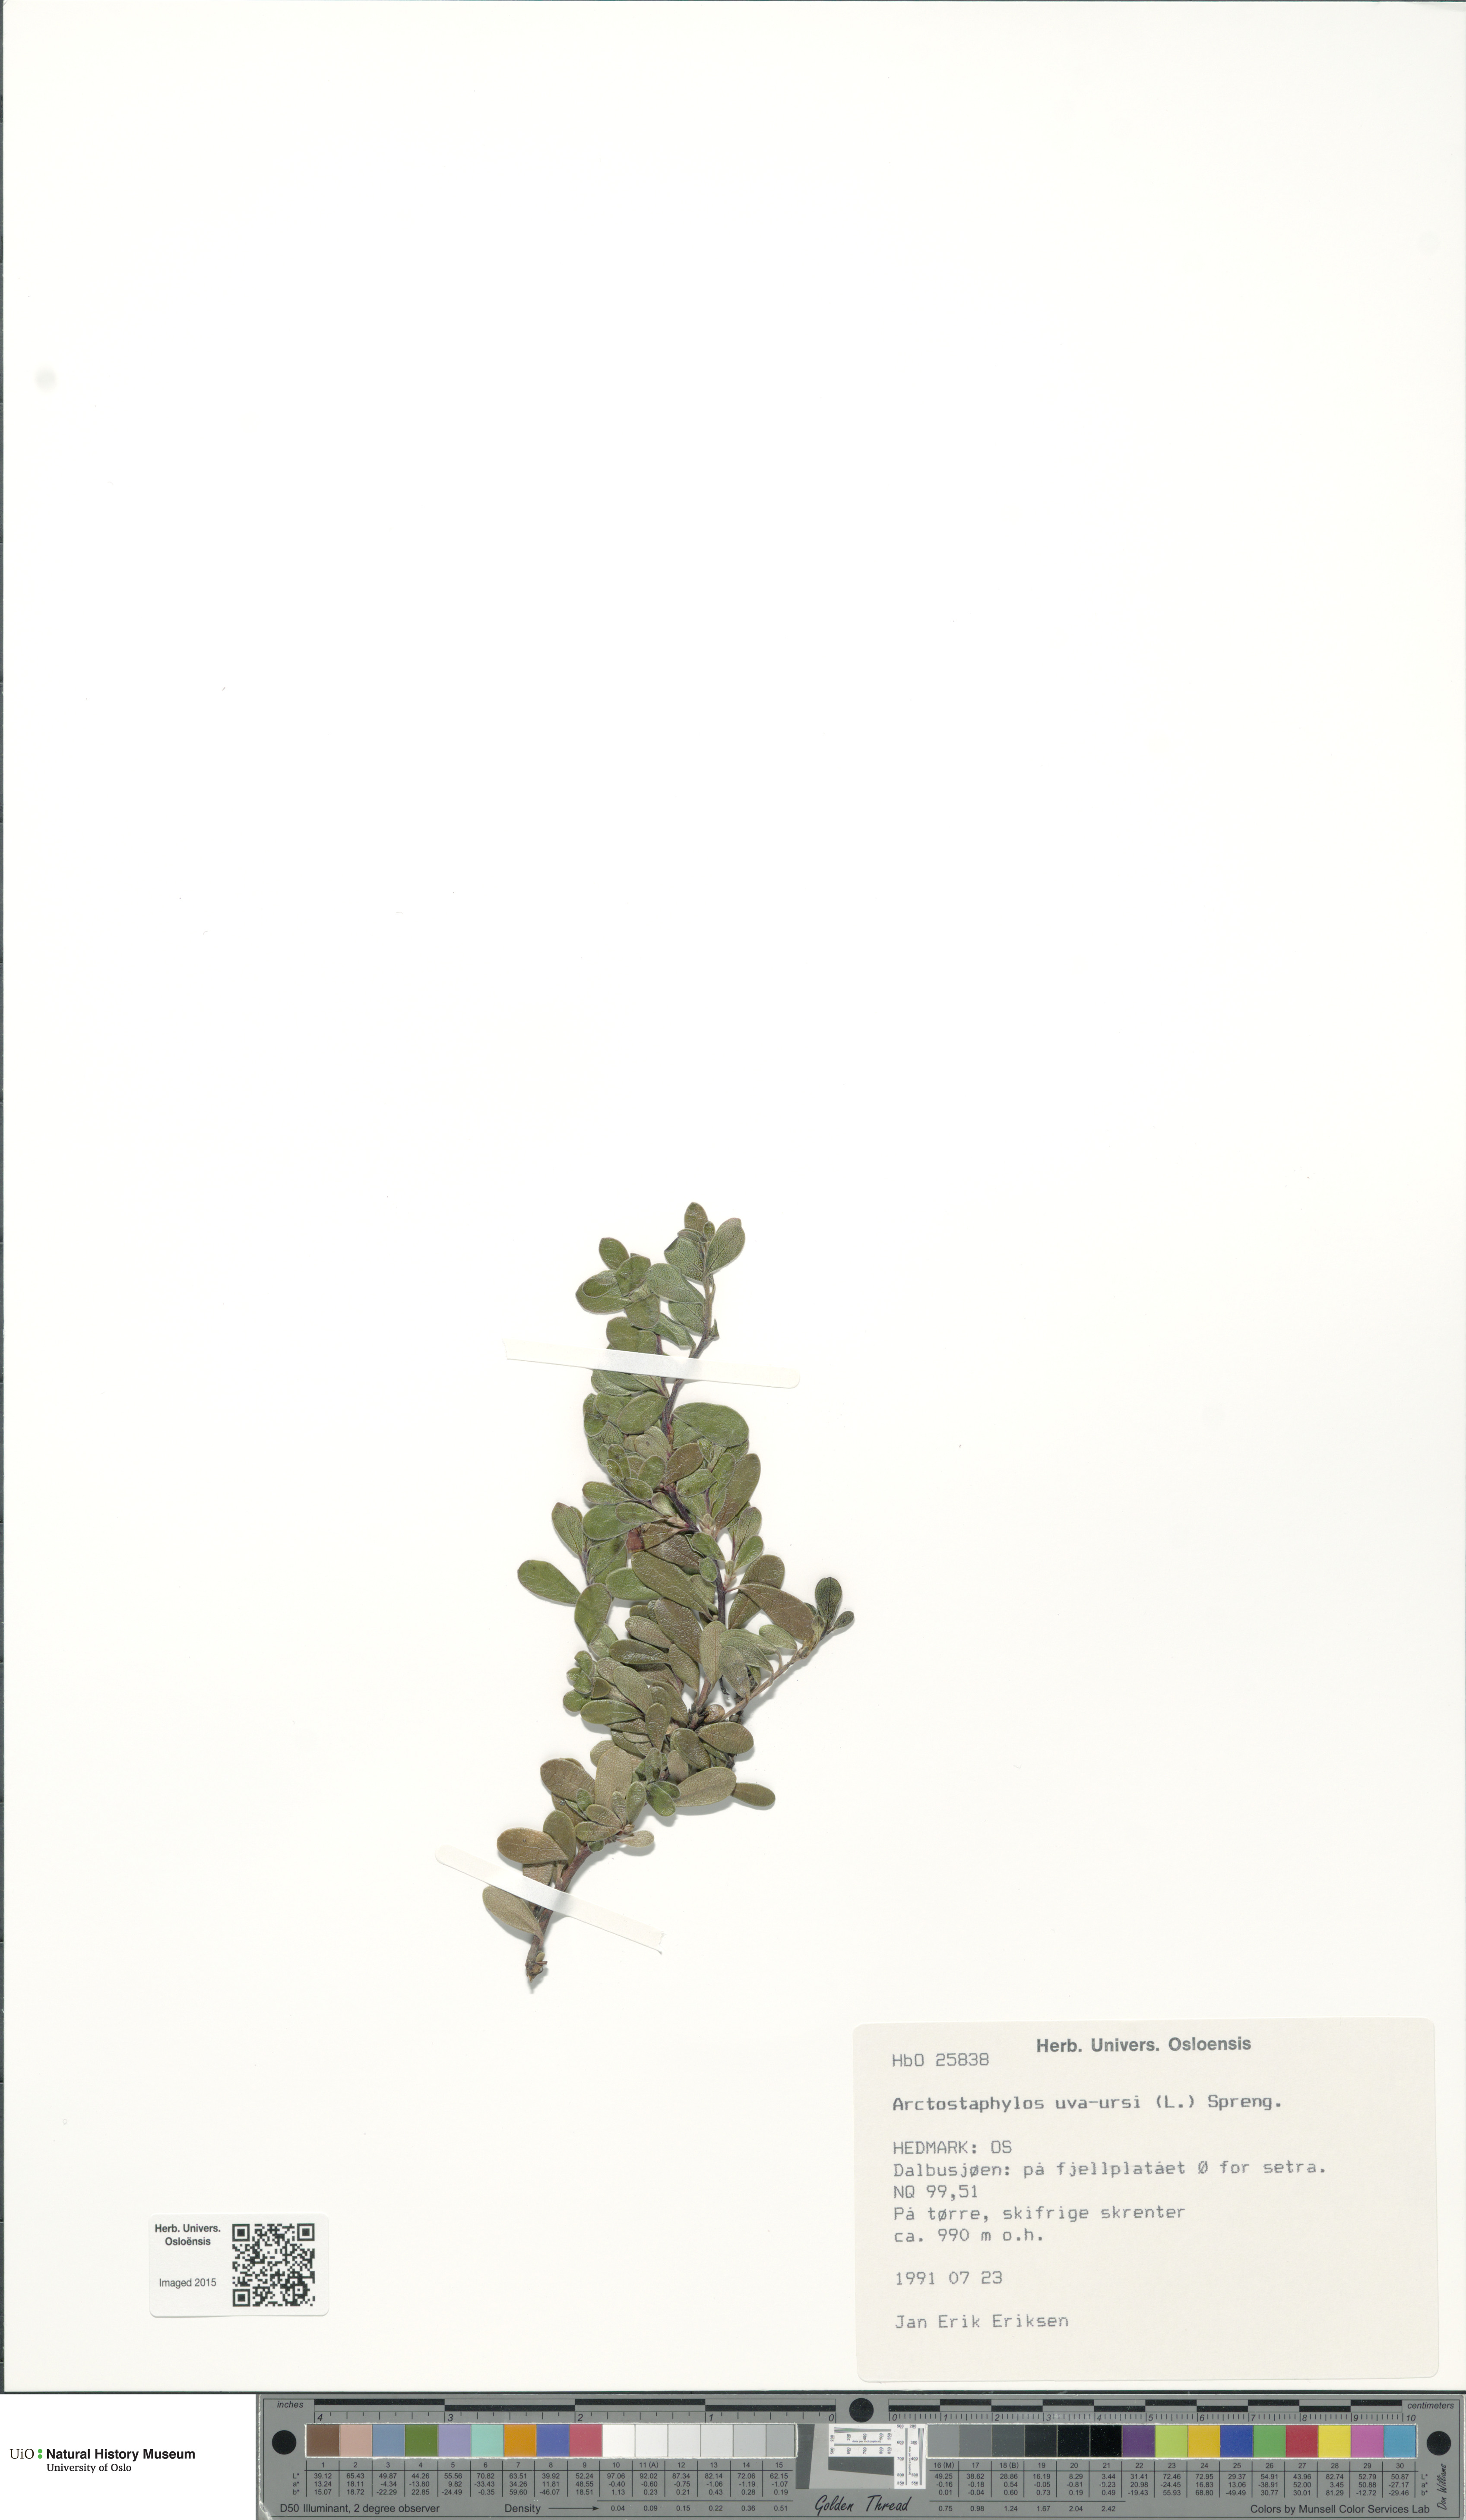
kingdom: Plantae
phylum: Tracheophyta
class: Magnoliopsida
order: Ericales
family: Ericaceae
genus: Arctostaphylos
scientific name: Arctostaphylos uva-ursi
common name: Bearberry
